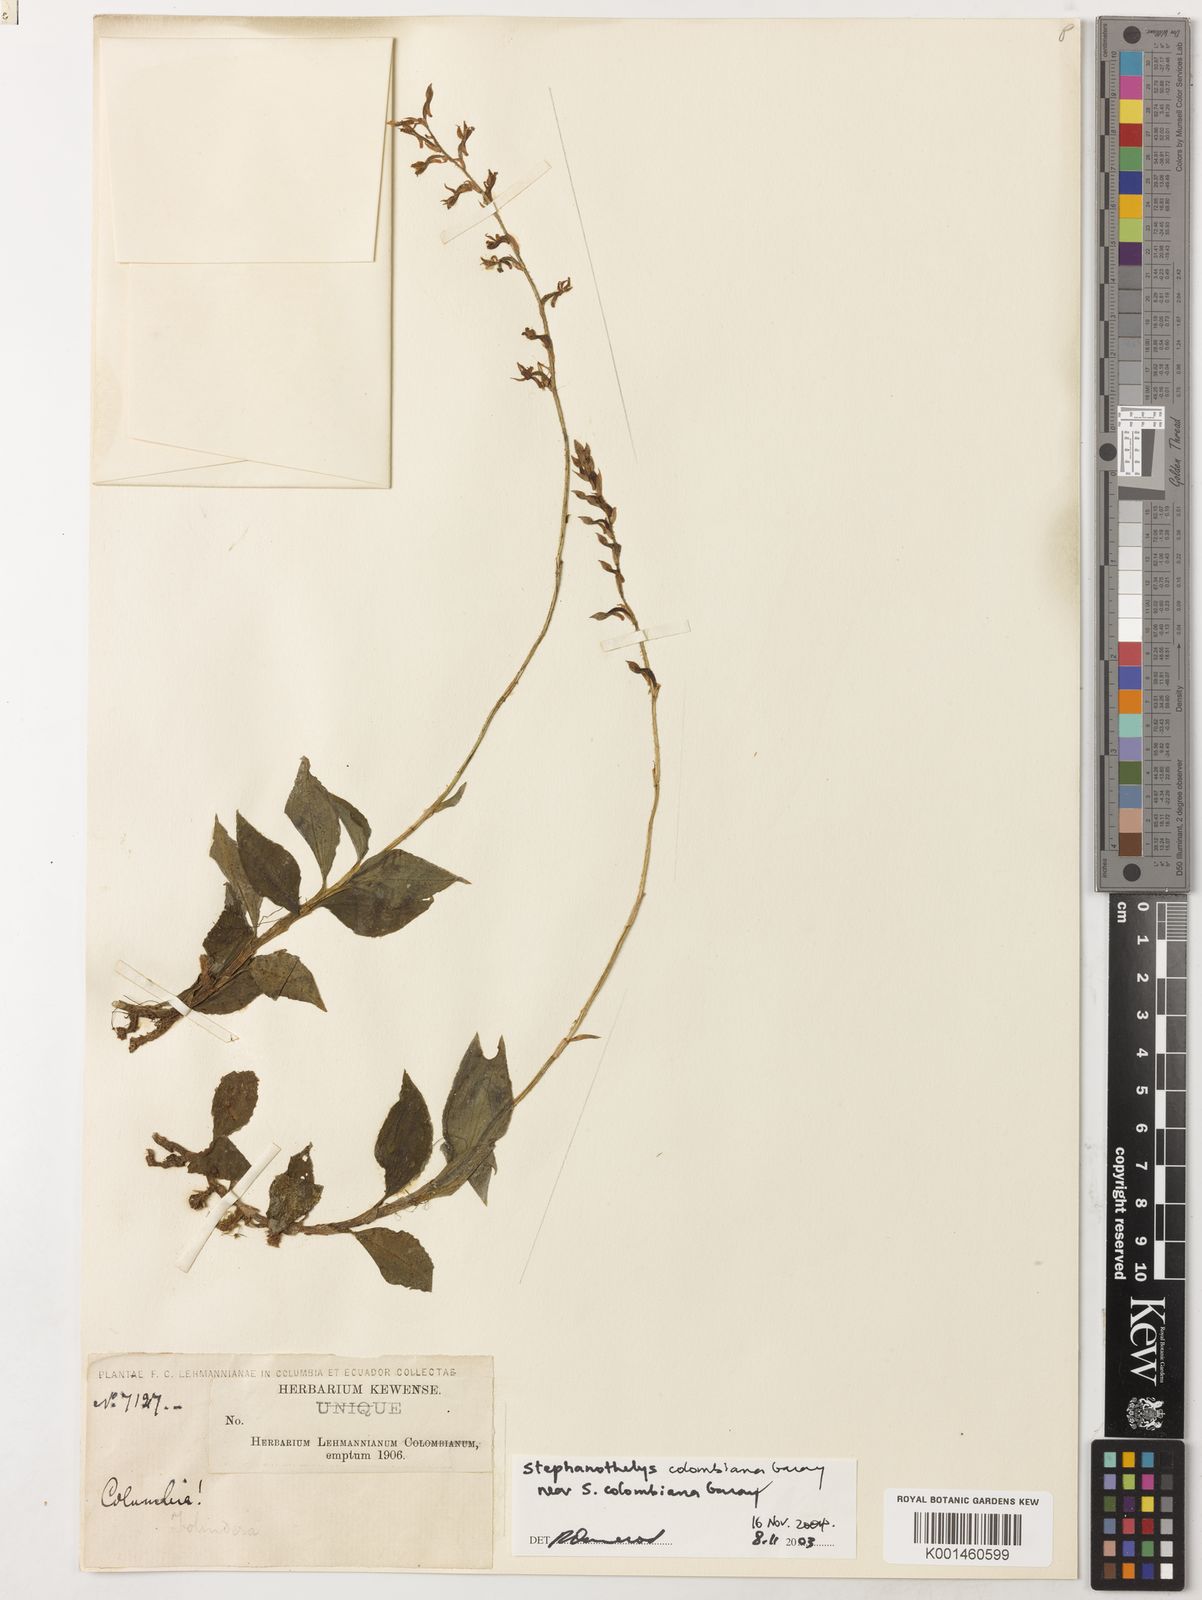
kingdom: Plantae
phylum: Tracheophyta
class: Liliopsida
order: Asparagales
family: Orchidaceae
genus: Stephanothelys
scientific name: Stephanothelys colombiana
